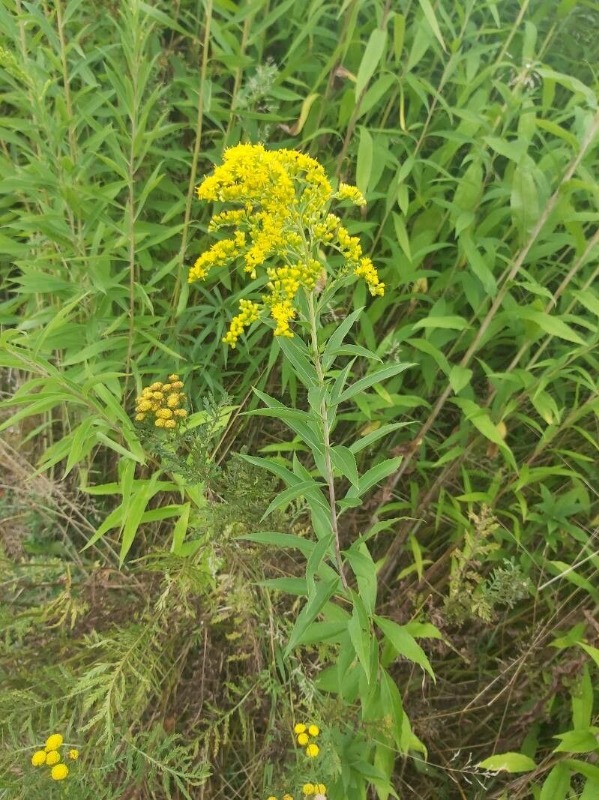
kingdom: Plantae
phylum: Tracheophyta
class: Magnoliopsida
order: Asterales
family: Asteraceae
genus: Solidago
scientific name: Solidago gigantea
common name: Sildig gyldenris
